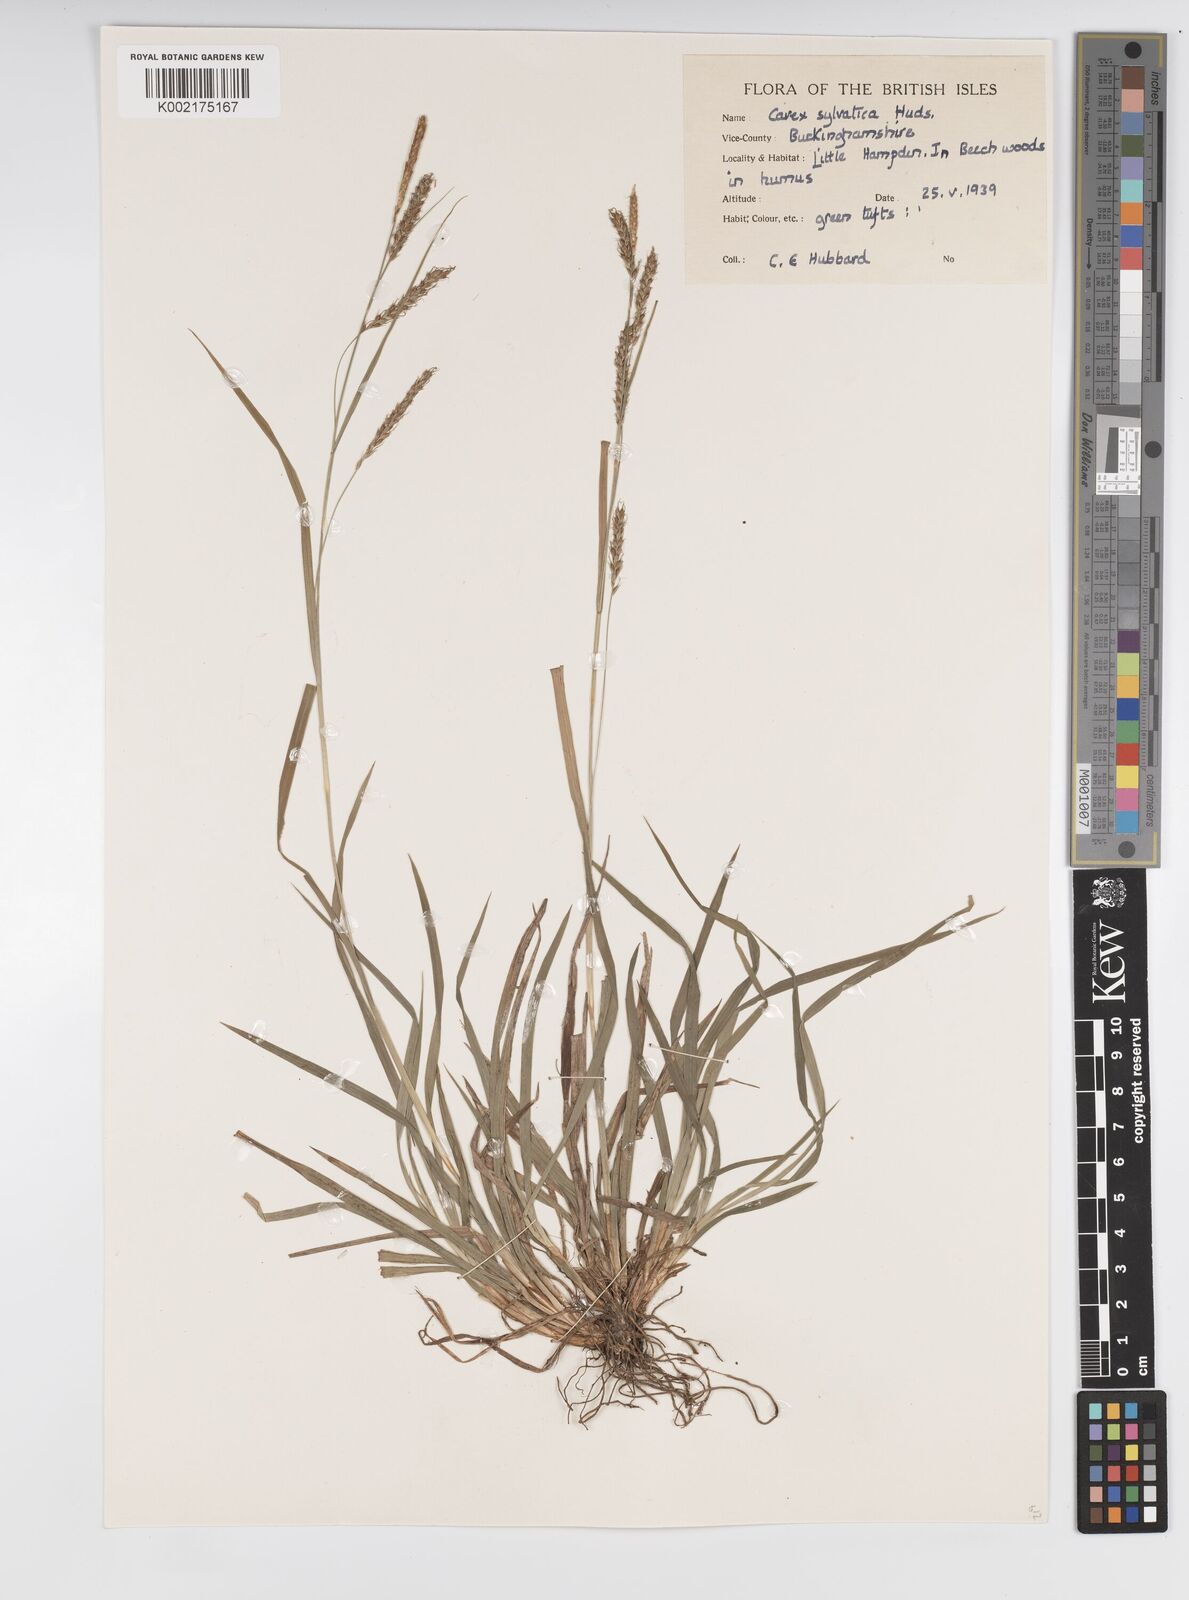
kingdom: Plantae
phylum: Tracheophyta
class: Liliopsida
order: Poales
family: Cyperaceae
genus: Carex
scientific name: Carex sylvatica
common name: Wood-sedge
